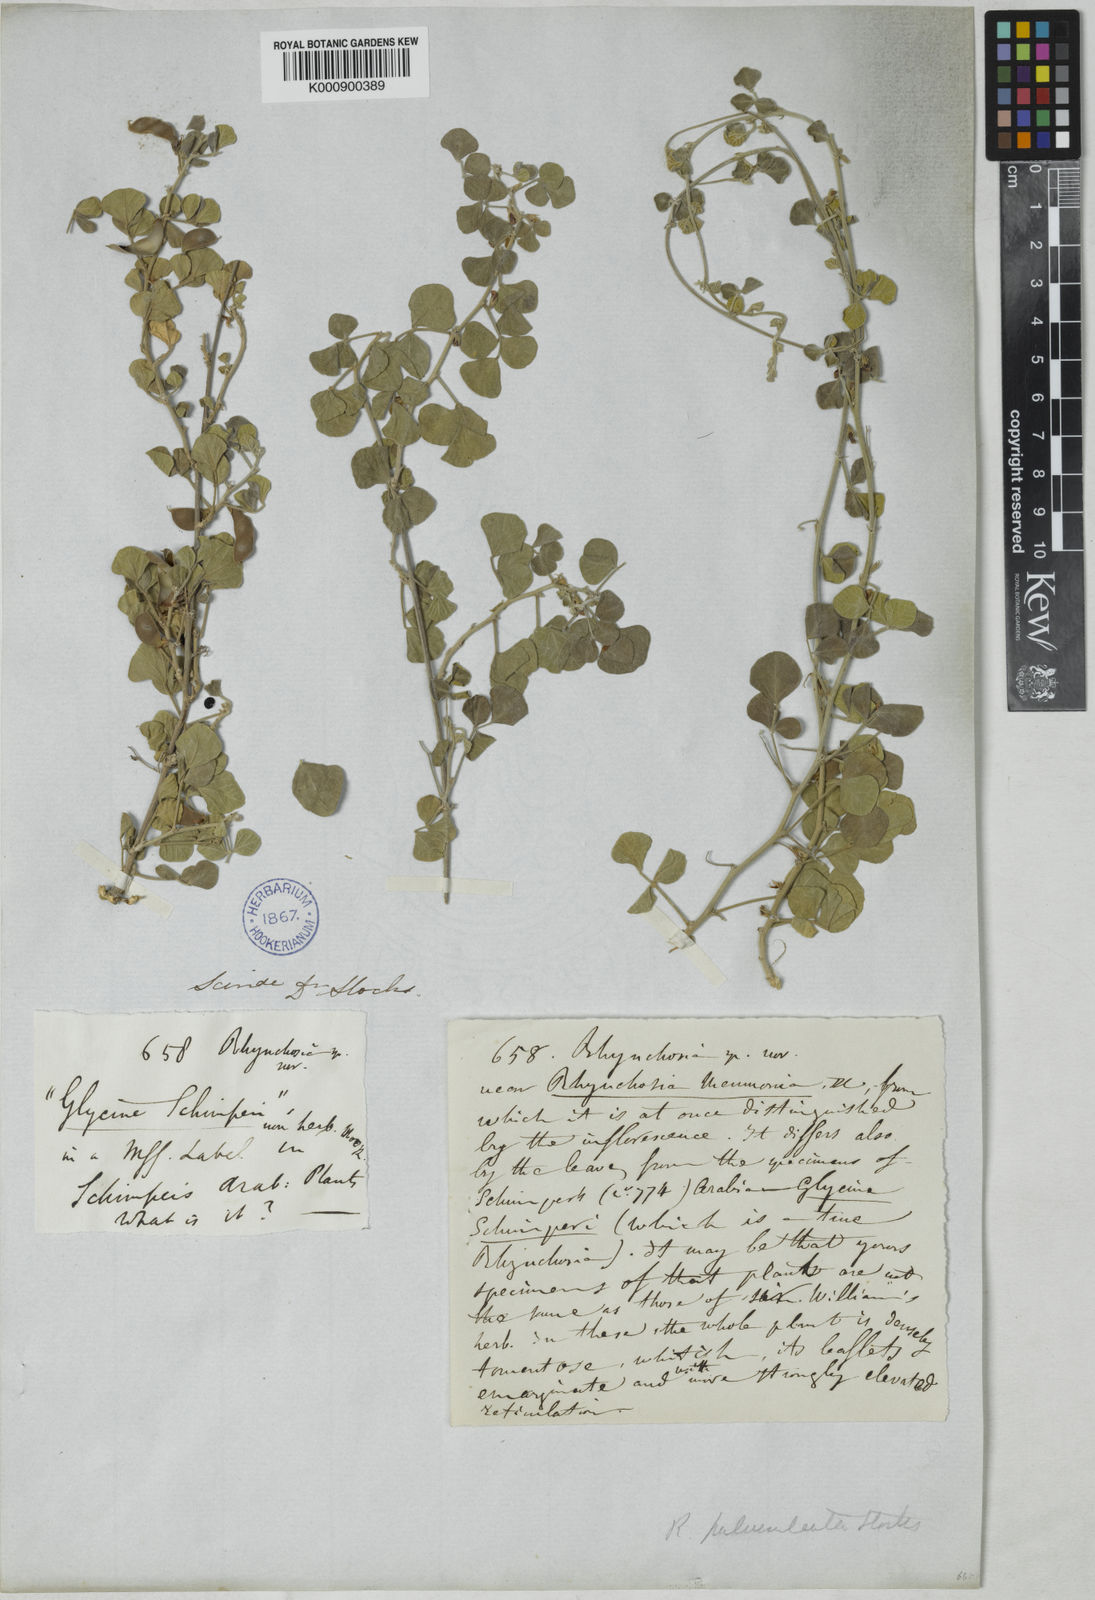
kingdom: Plantae
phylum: Tracheophyta
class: Magnoliopsida
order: Fabales
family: Fabaceae
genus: Rhynchosia
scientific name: Rhynchosia minima
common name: Least snoutbean
